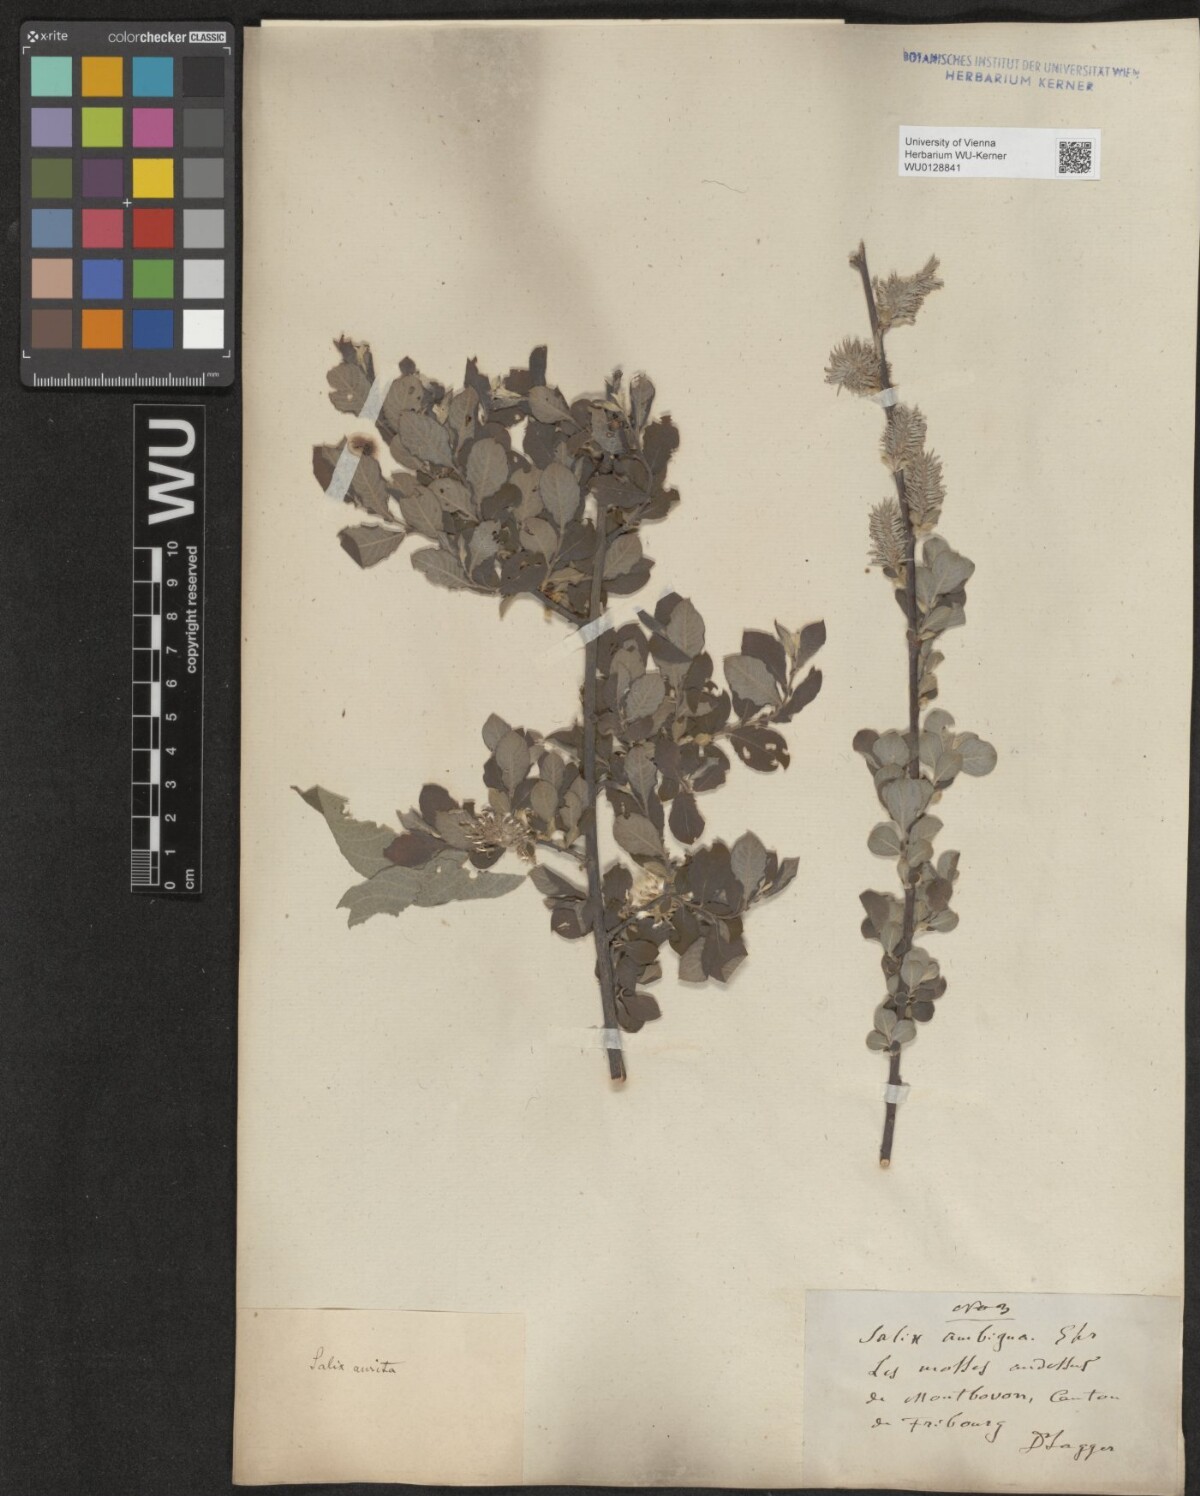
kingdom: Plantae
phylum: Tracheophyta
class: Magnoliopsida
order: Malpighiales
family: Salicaceae
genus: Salix
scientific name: Salix aurita
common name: Eared willow
